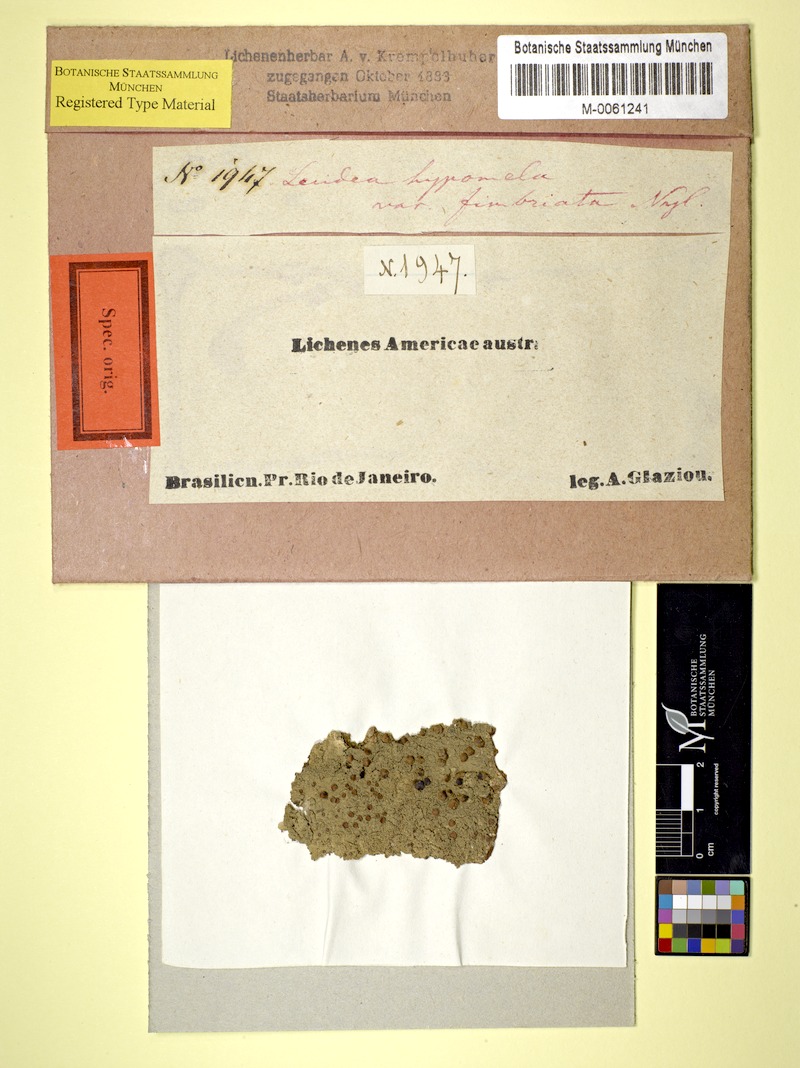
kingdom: Fungi
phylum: Ascomycota
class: Lecanoromycetes
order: Lecideales
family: Lecideaceae
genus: Lecidea
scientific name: Lecidea hypomela
